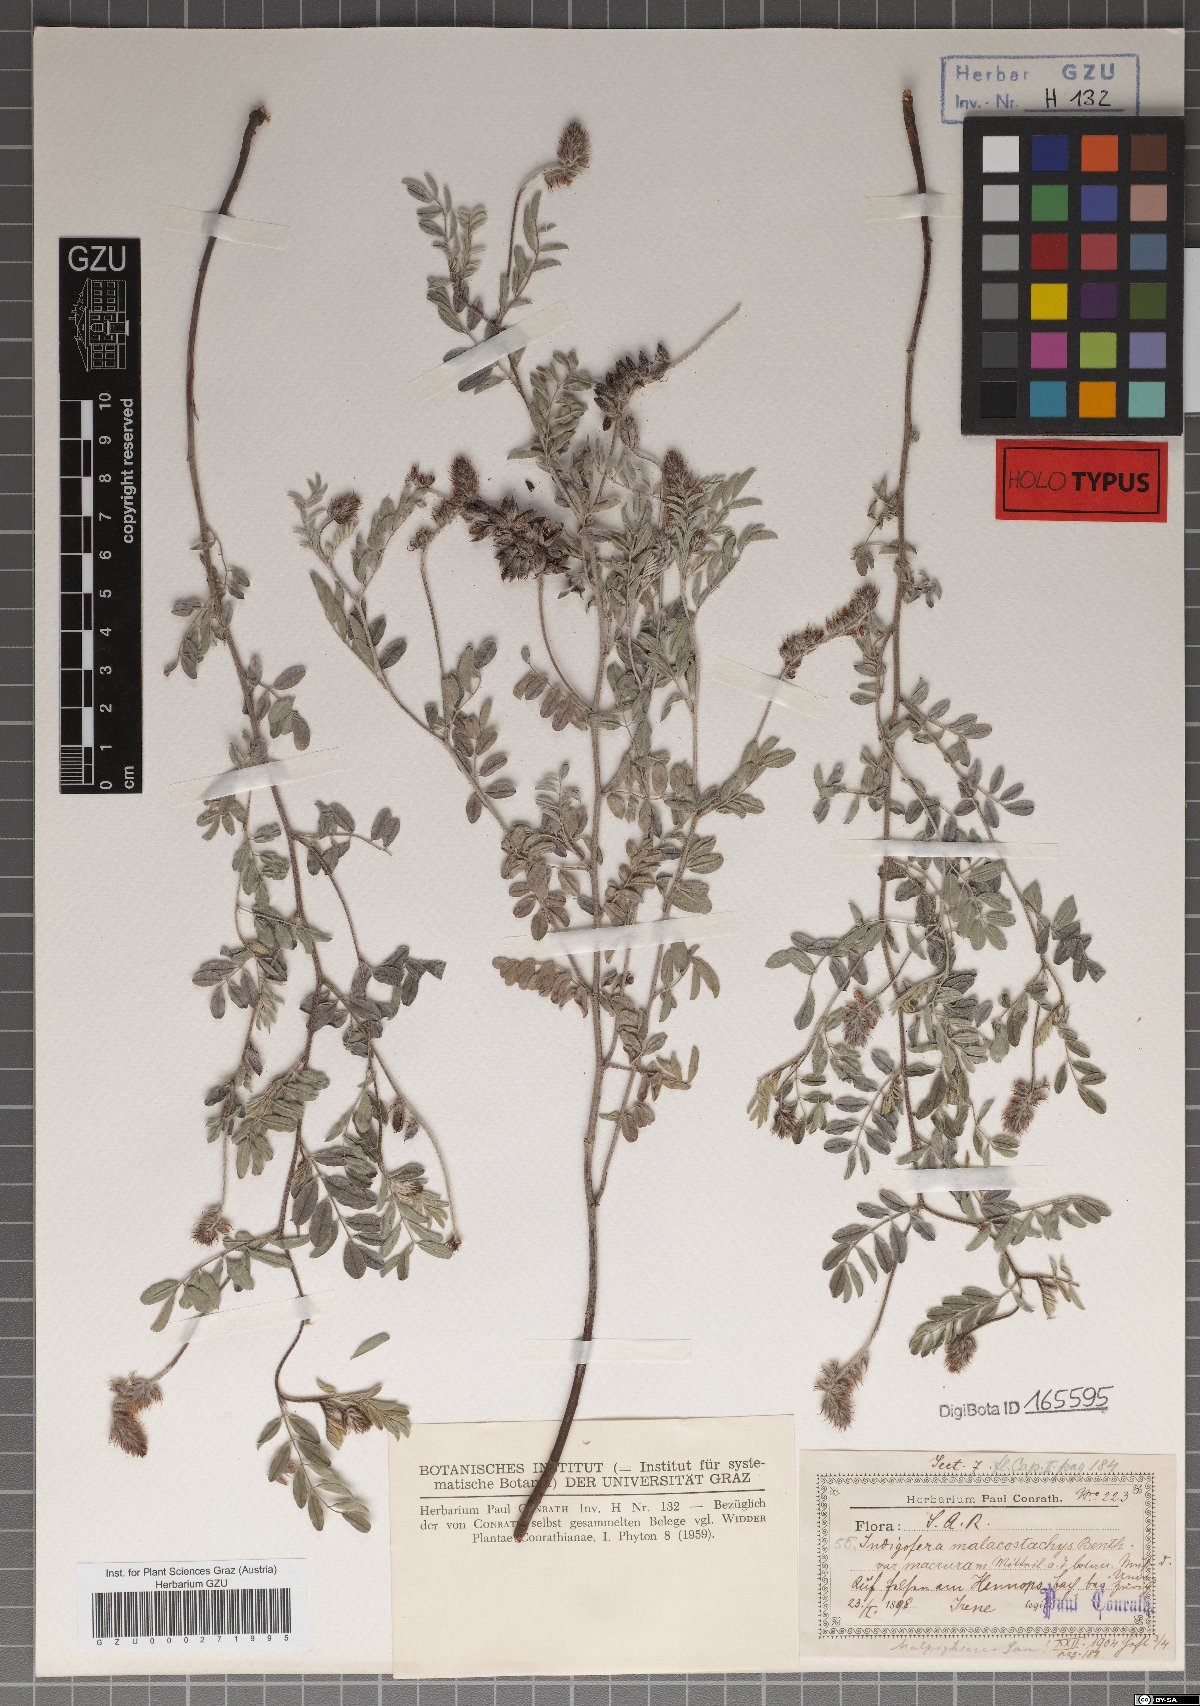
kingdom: Plantae
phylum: Tracheophyta
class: Magnoliopsida
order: Fabales
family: Fabaceae
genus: Indigofera
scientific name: Indigofera melanadenia
